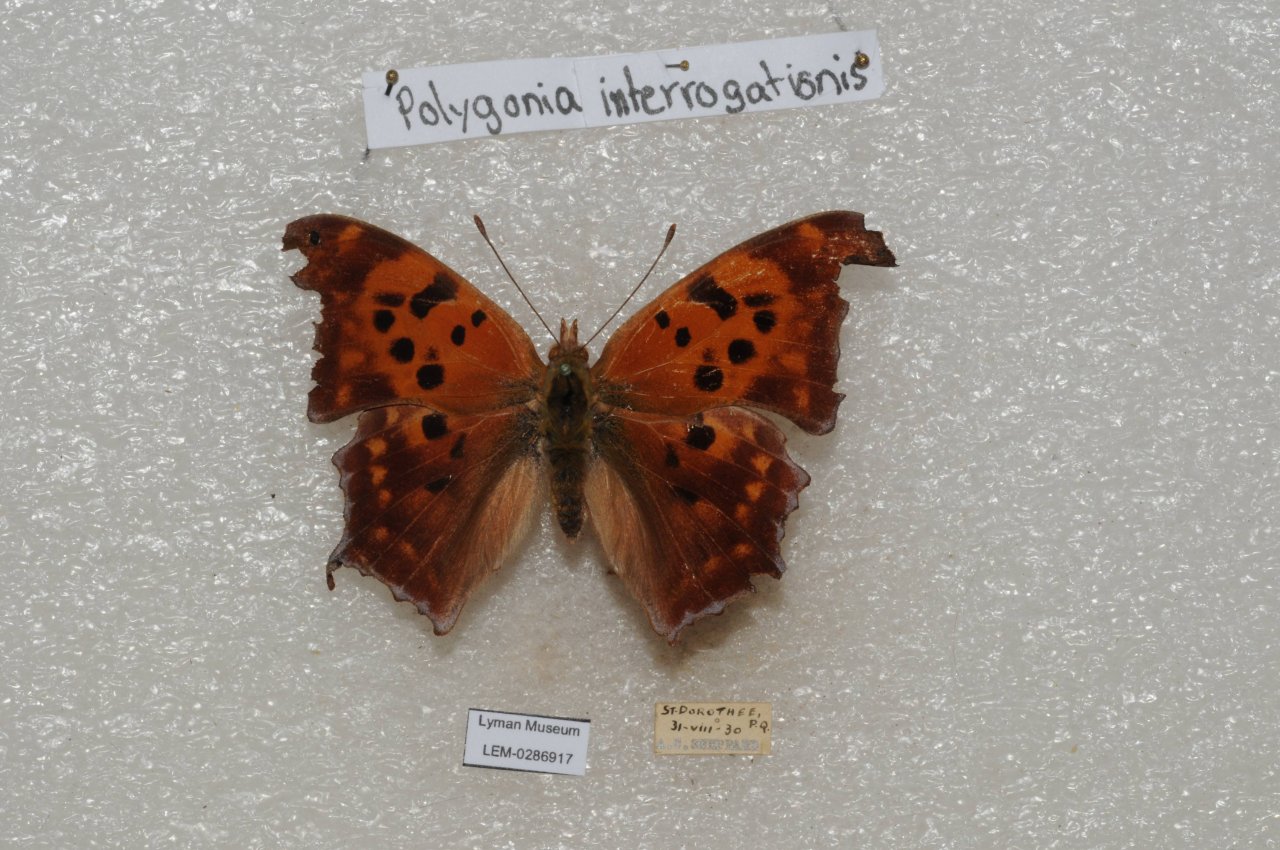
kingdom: Animalia
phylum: Arthropoda
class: Insecta
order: Lepidoptera
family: Nymphalidae
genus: Polygonia
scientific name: Polygonia interrogationis
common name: Question Mark
